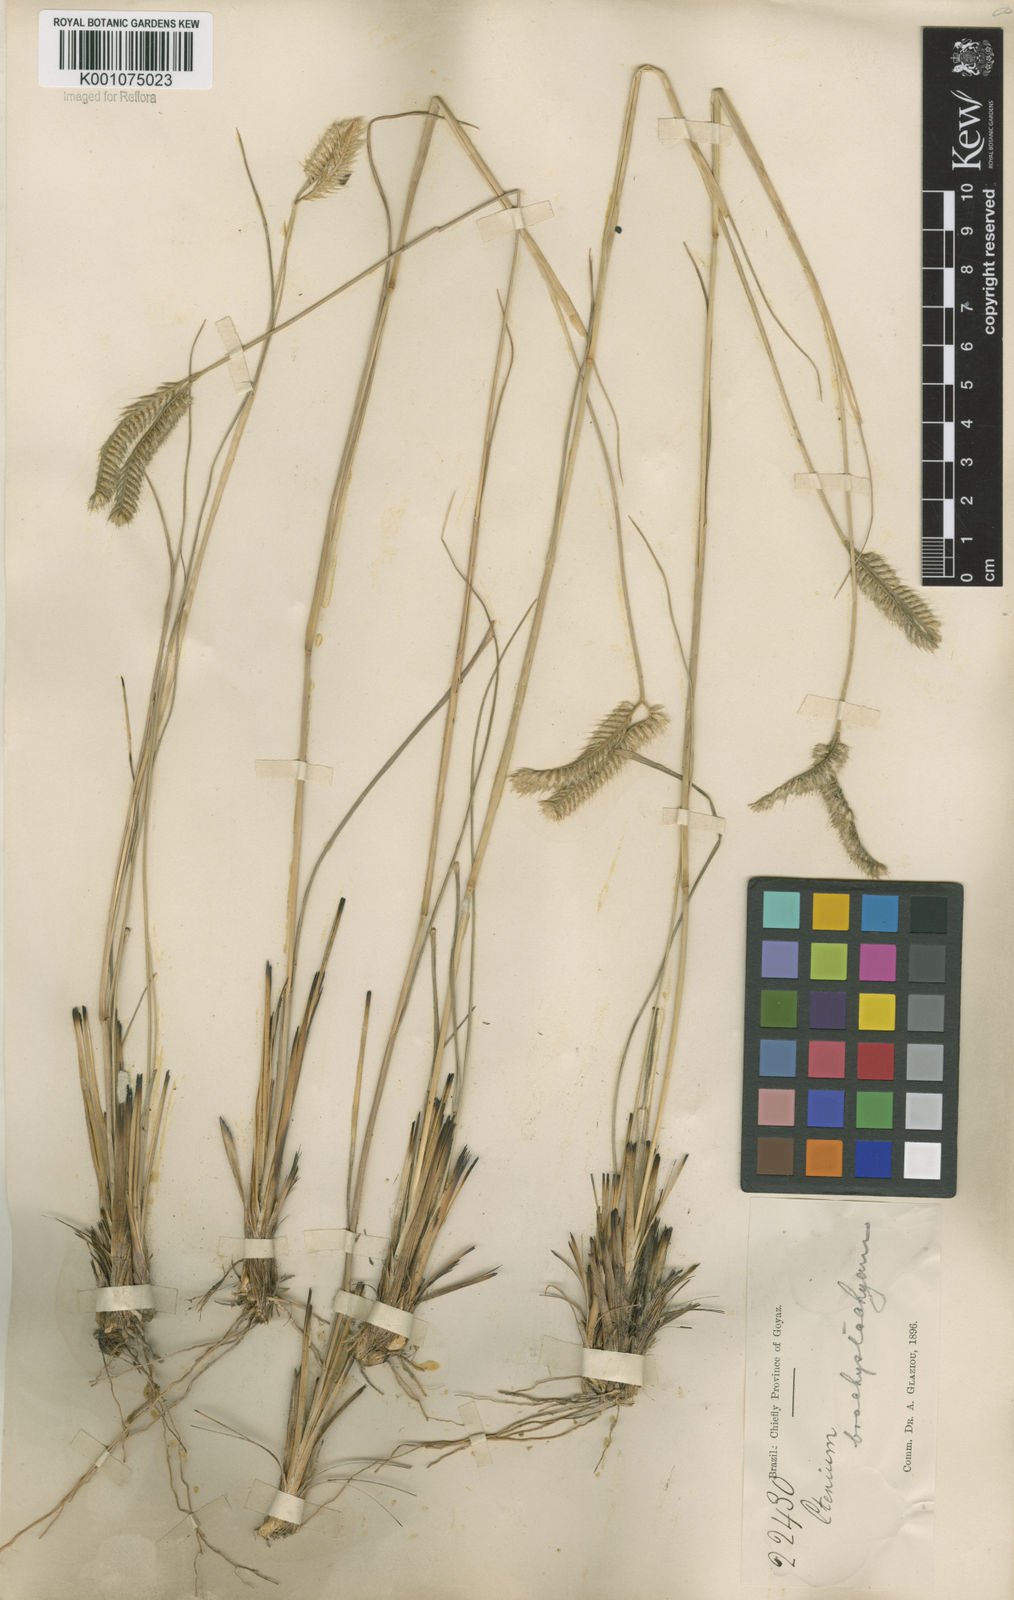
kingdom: Plantae
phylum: Tracheophyta
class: Liliopsida
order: Poales
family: Poaceae
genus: Ctenium
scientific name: Ctenium brevispicatum
